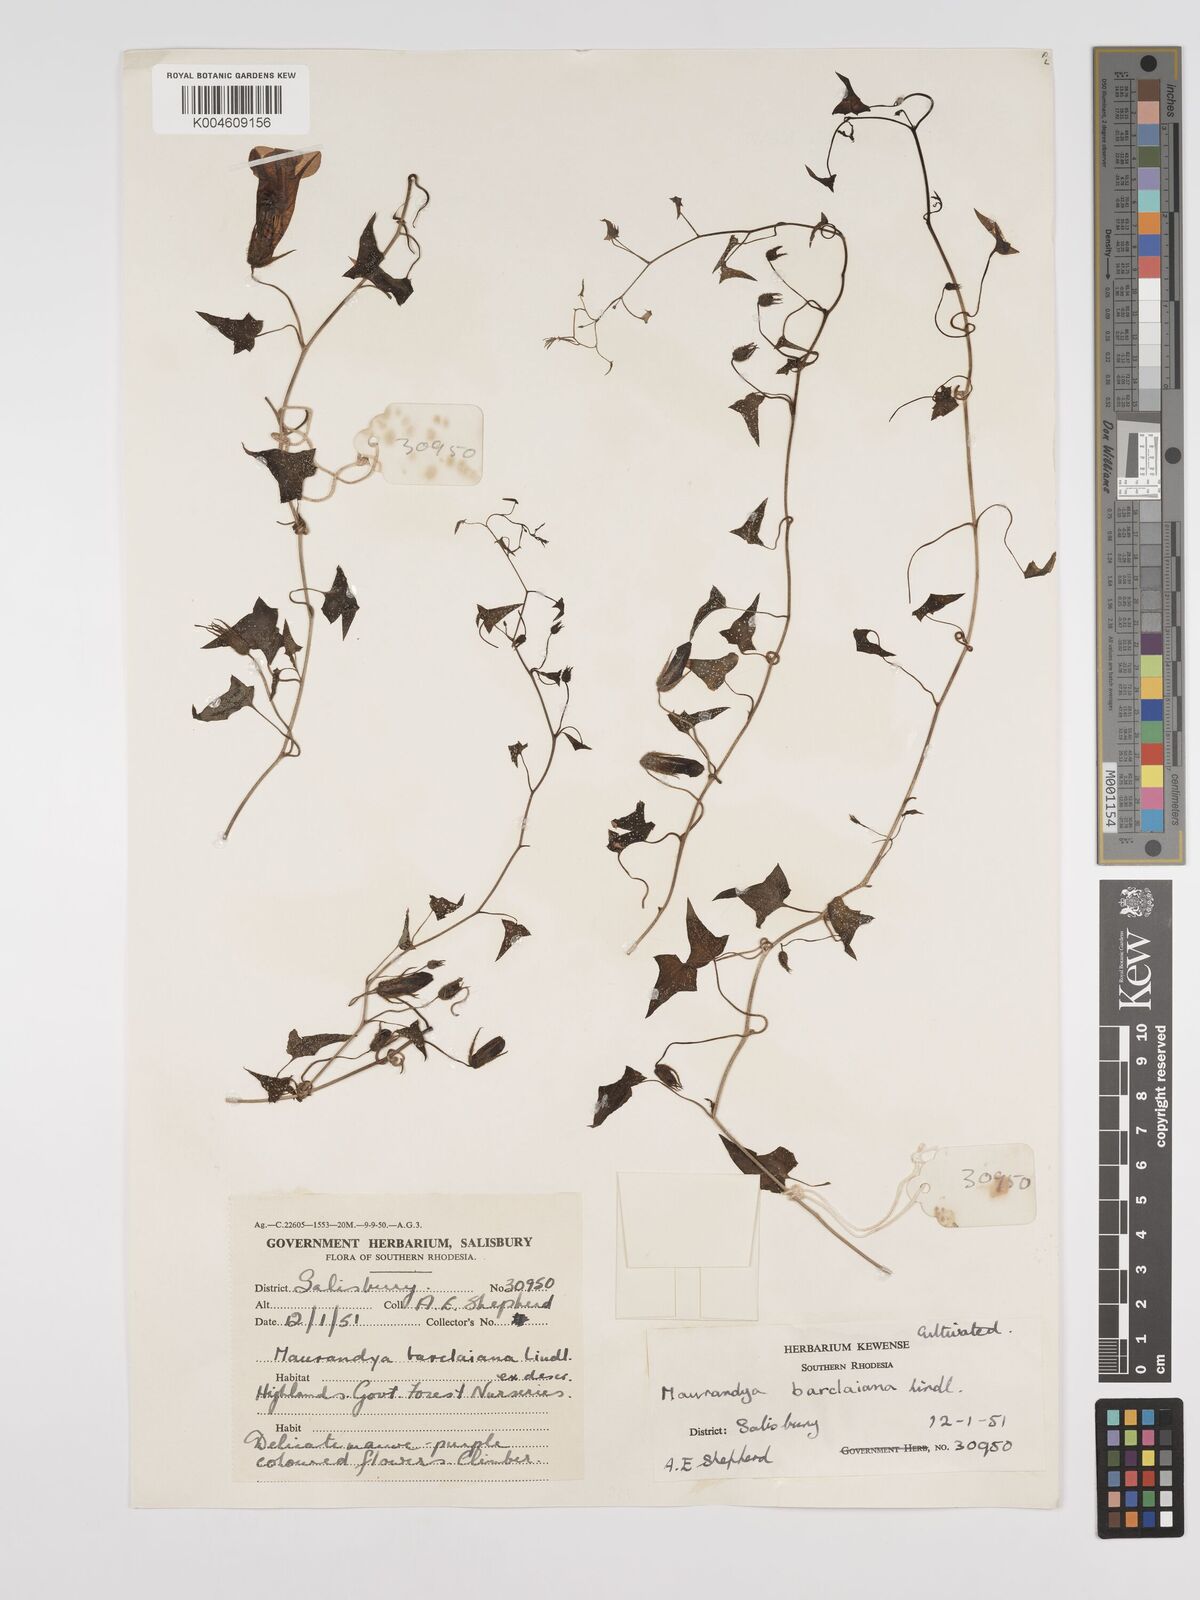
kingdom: Plantae
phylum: Tracheophyta
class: Magnoliopsida
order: Lamiales
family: Plantaginaceae
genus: Maurandya
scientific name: Maurandya barclayana
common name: Mexican viper
